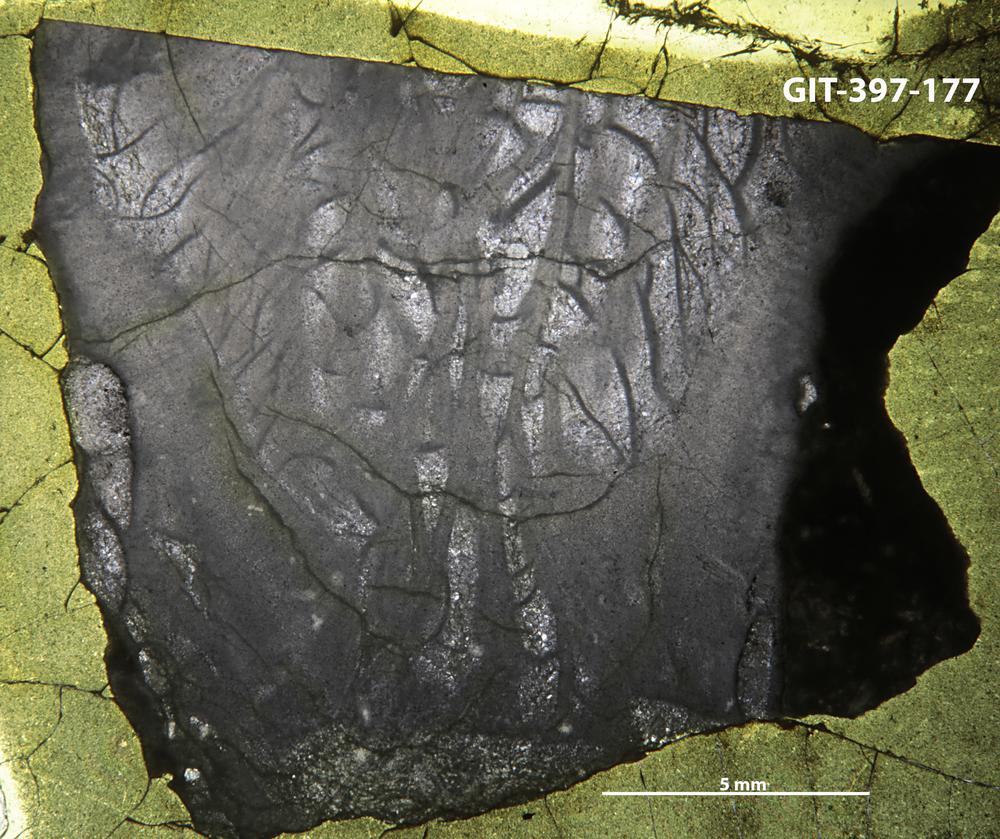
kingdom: Animalia
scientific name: Animalia
